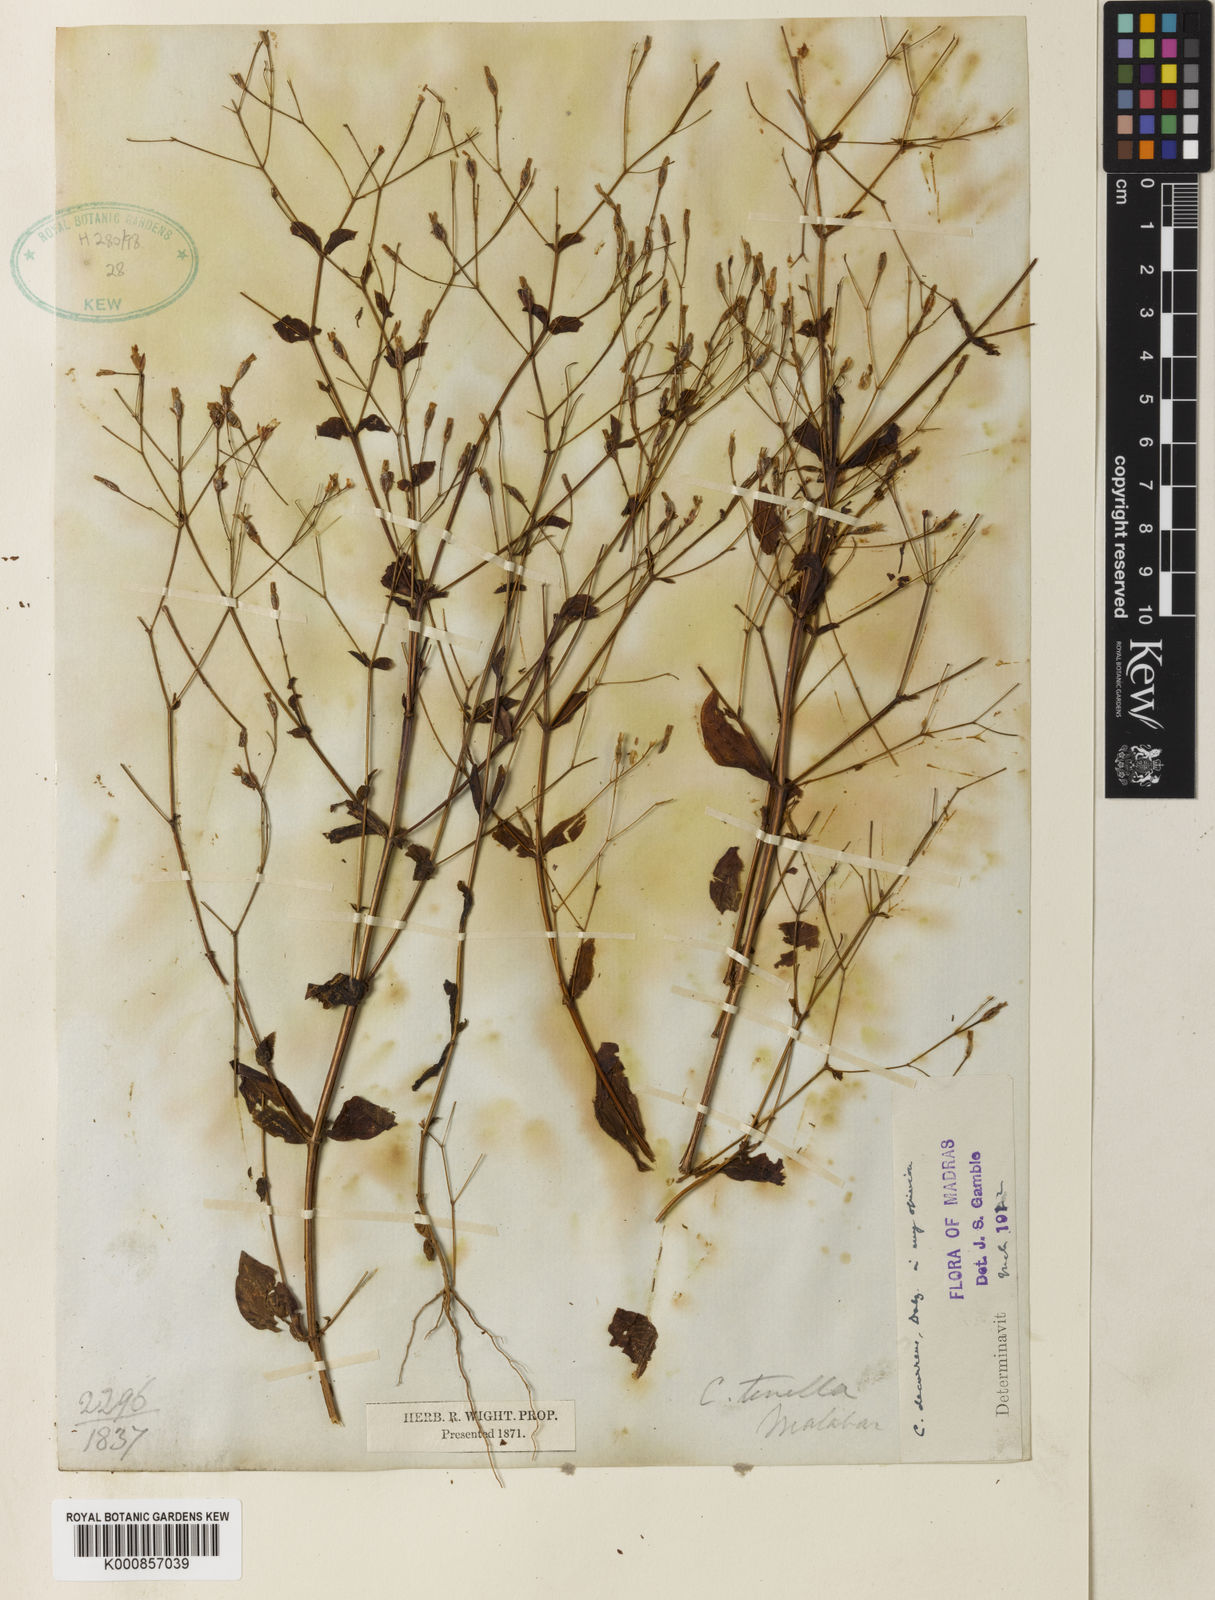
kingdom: Plantae
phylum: Tracheophyta
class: Magnoliopsida
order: Gentianales
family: Gentianaceae
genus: Canscora
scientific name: Canscora diffusa
